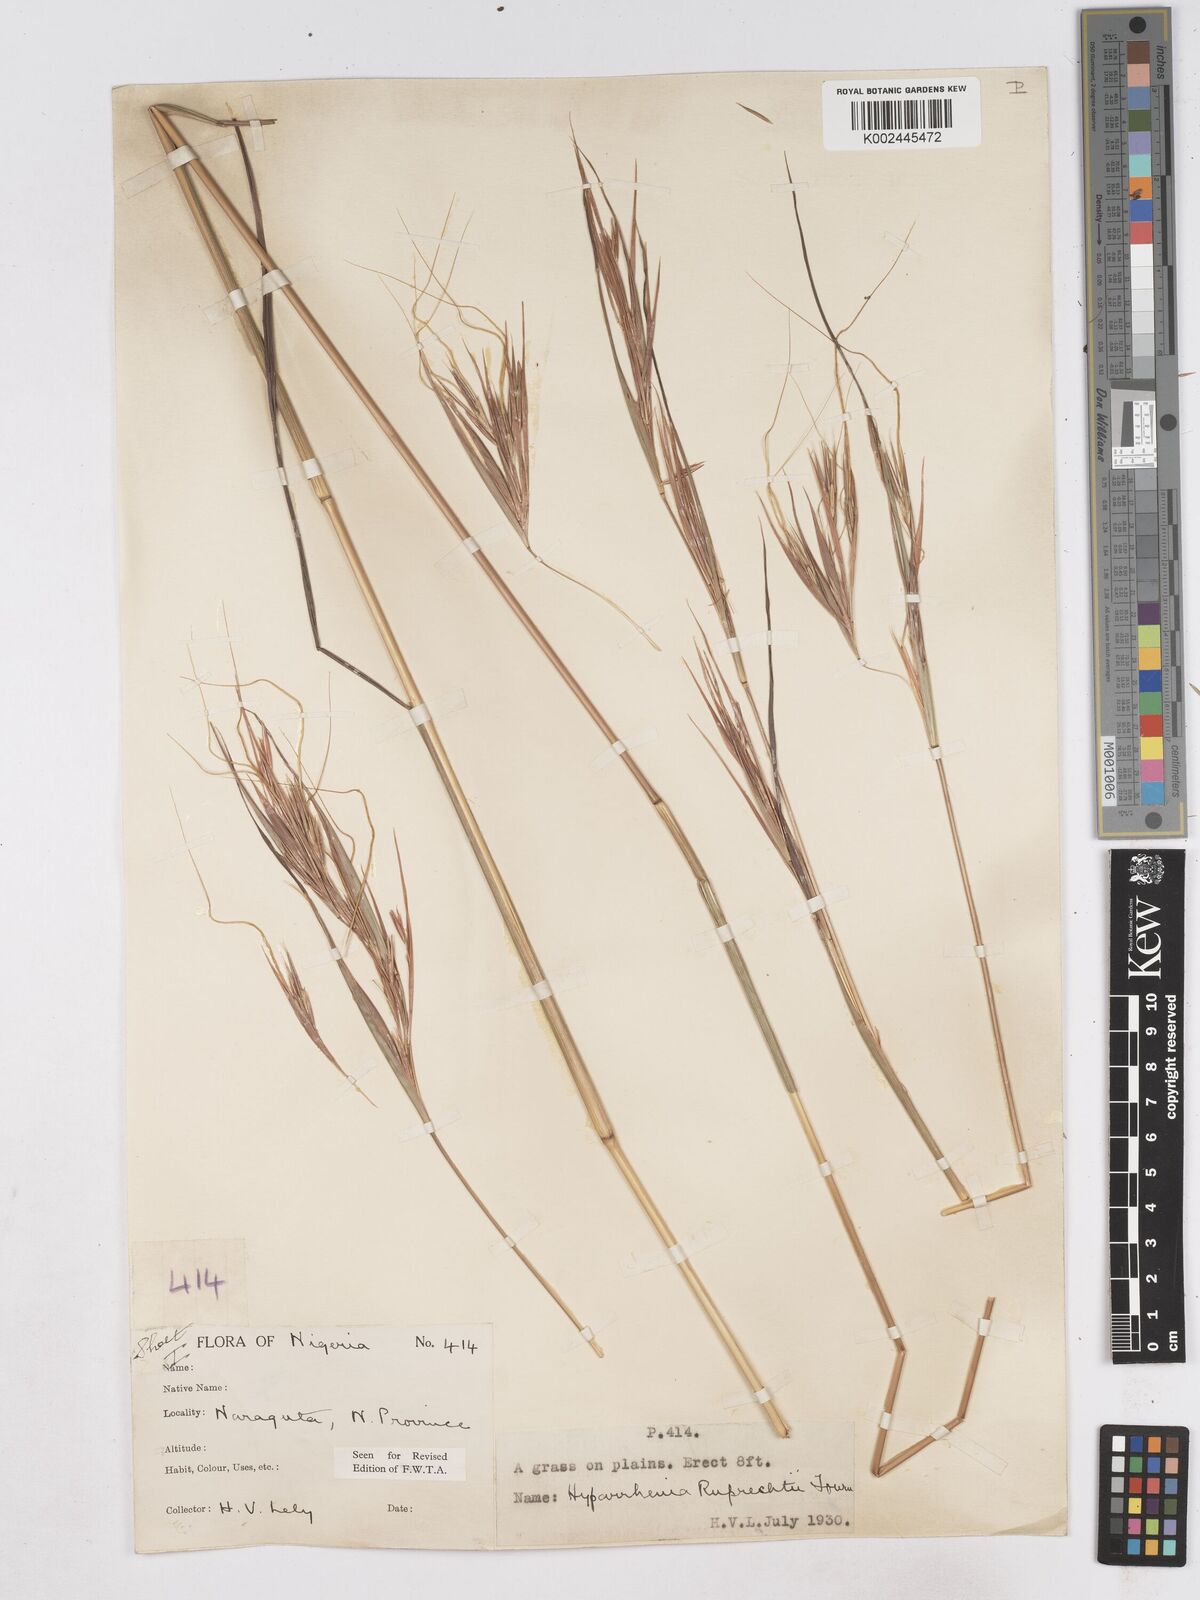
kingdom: Plantae
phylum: Tracheophyta
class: Liliopsida
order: Poales
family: Poaceae
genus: Hyperthelia
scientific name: Hyperthelia dissoluta
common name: Yellow thatching grass
